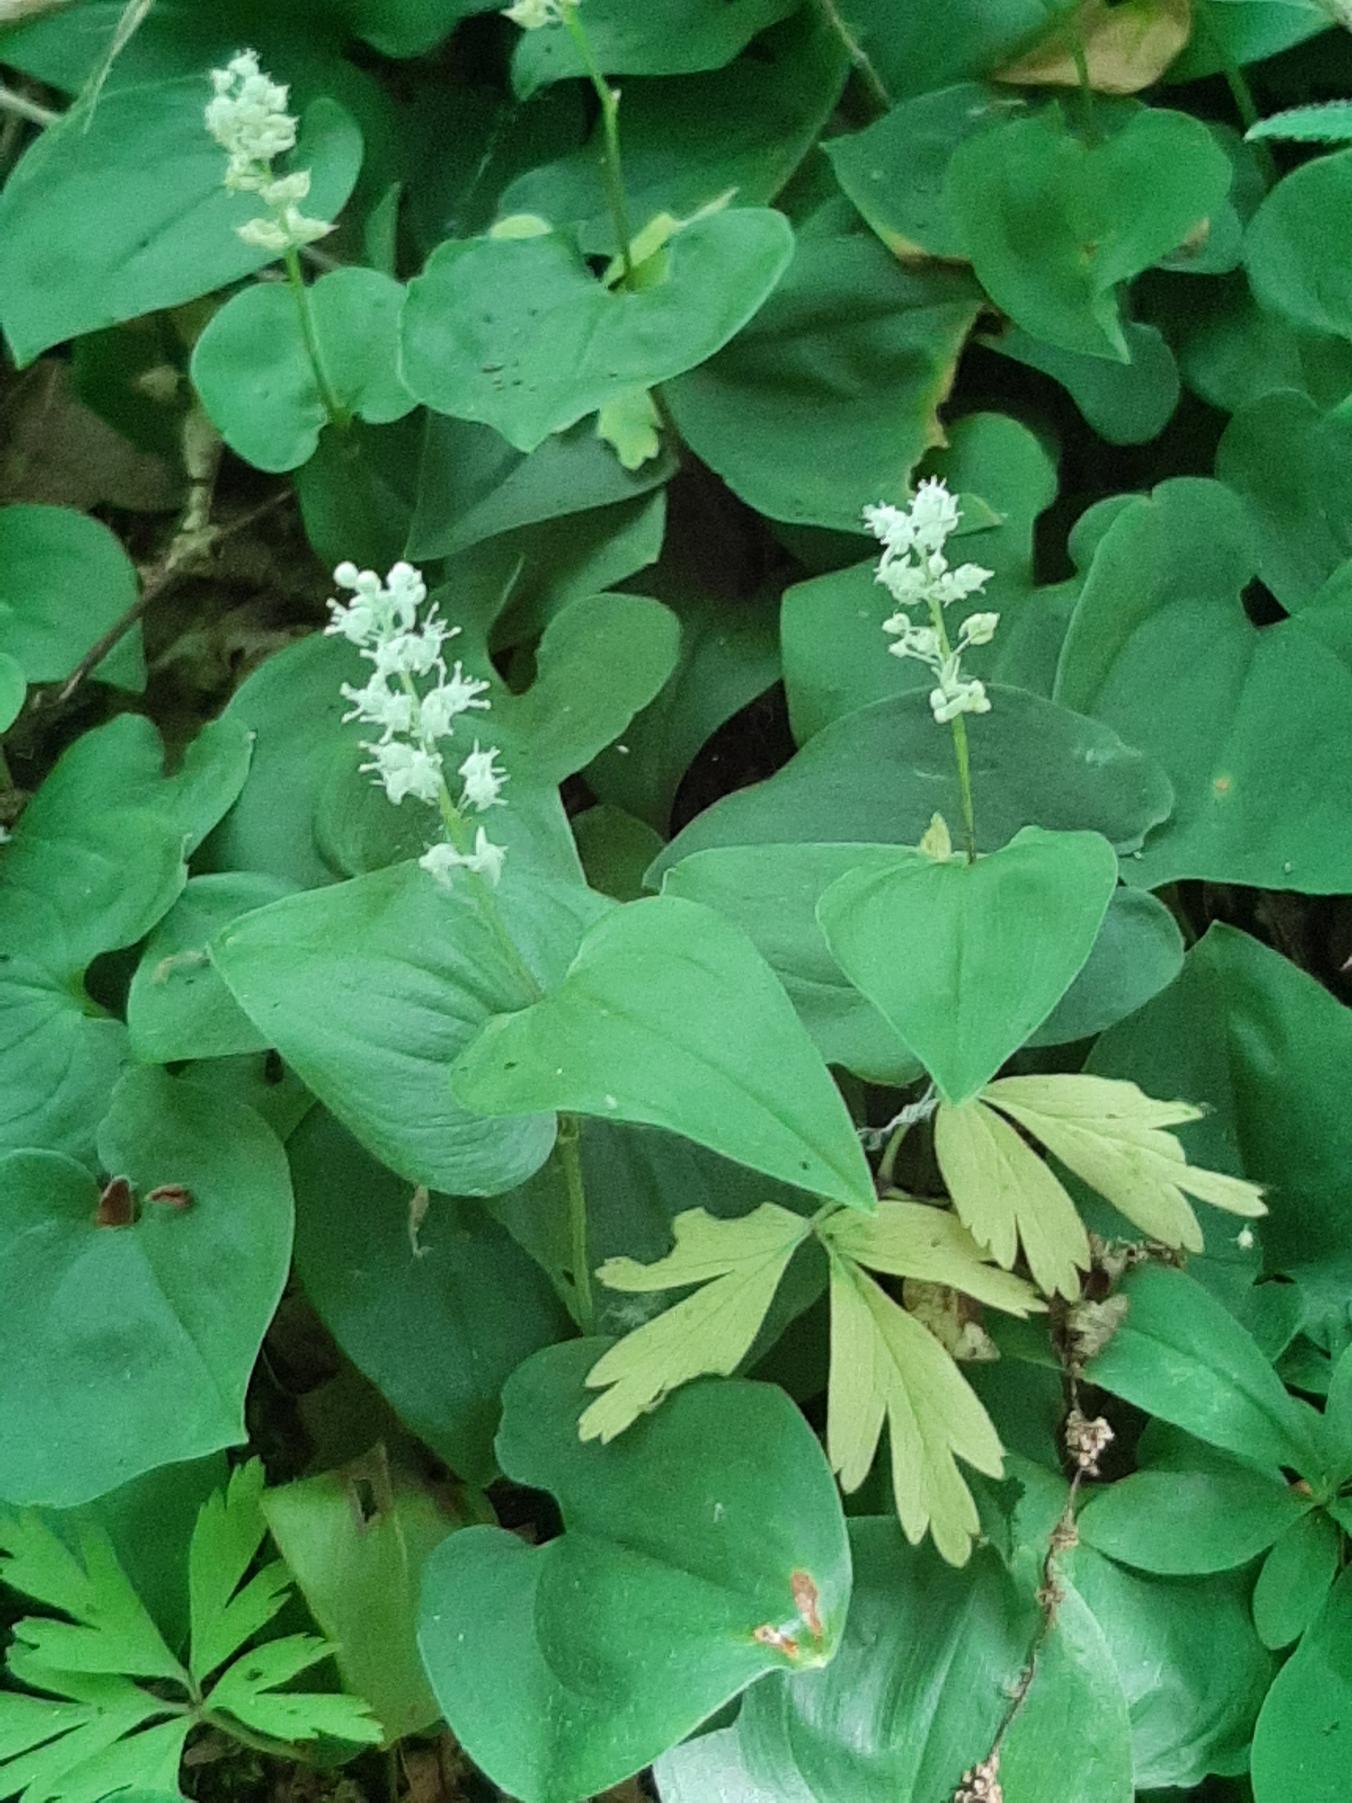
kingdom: Plantae
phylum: Tracheophyta
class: Liliopsida
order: Asparagales
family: Asparagaceae
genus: Maianthemum
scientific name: Maianthemum bifolium
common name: Majblomst
